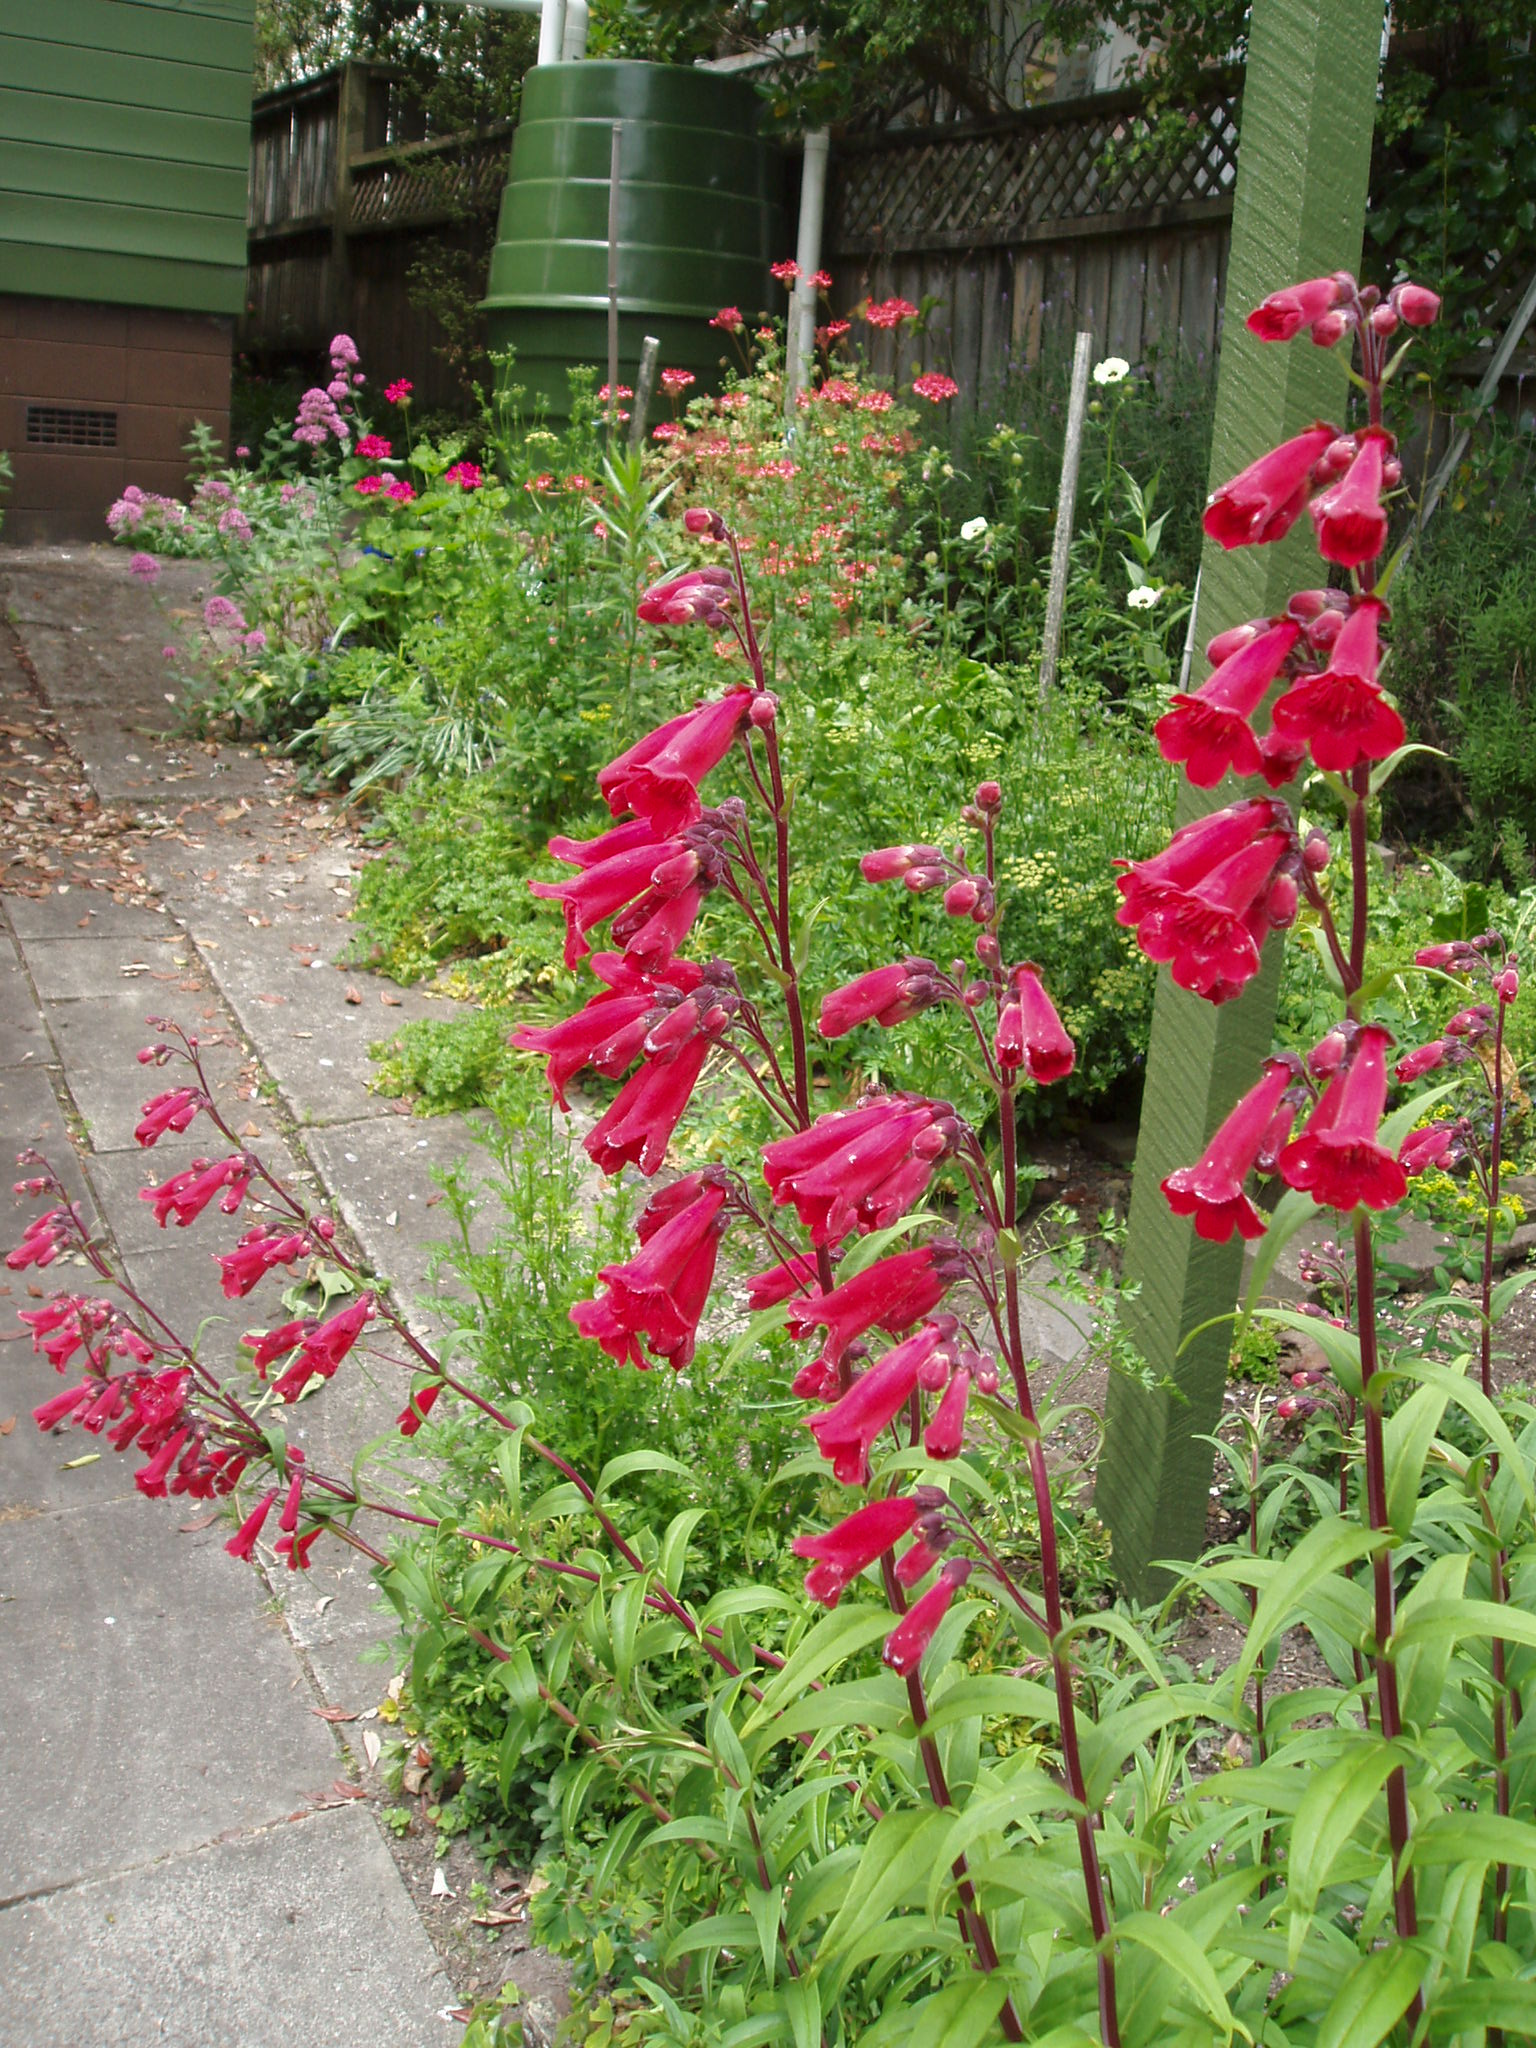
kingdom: Plantae
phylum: Tracheophyta
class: Magnoliopsida
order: Lamiales
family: Plantaginaceae
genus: Penstemon
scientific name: Penstemon
